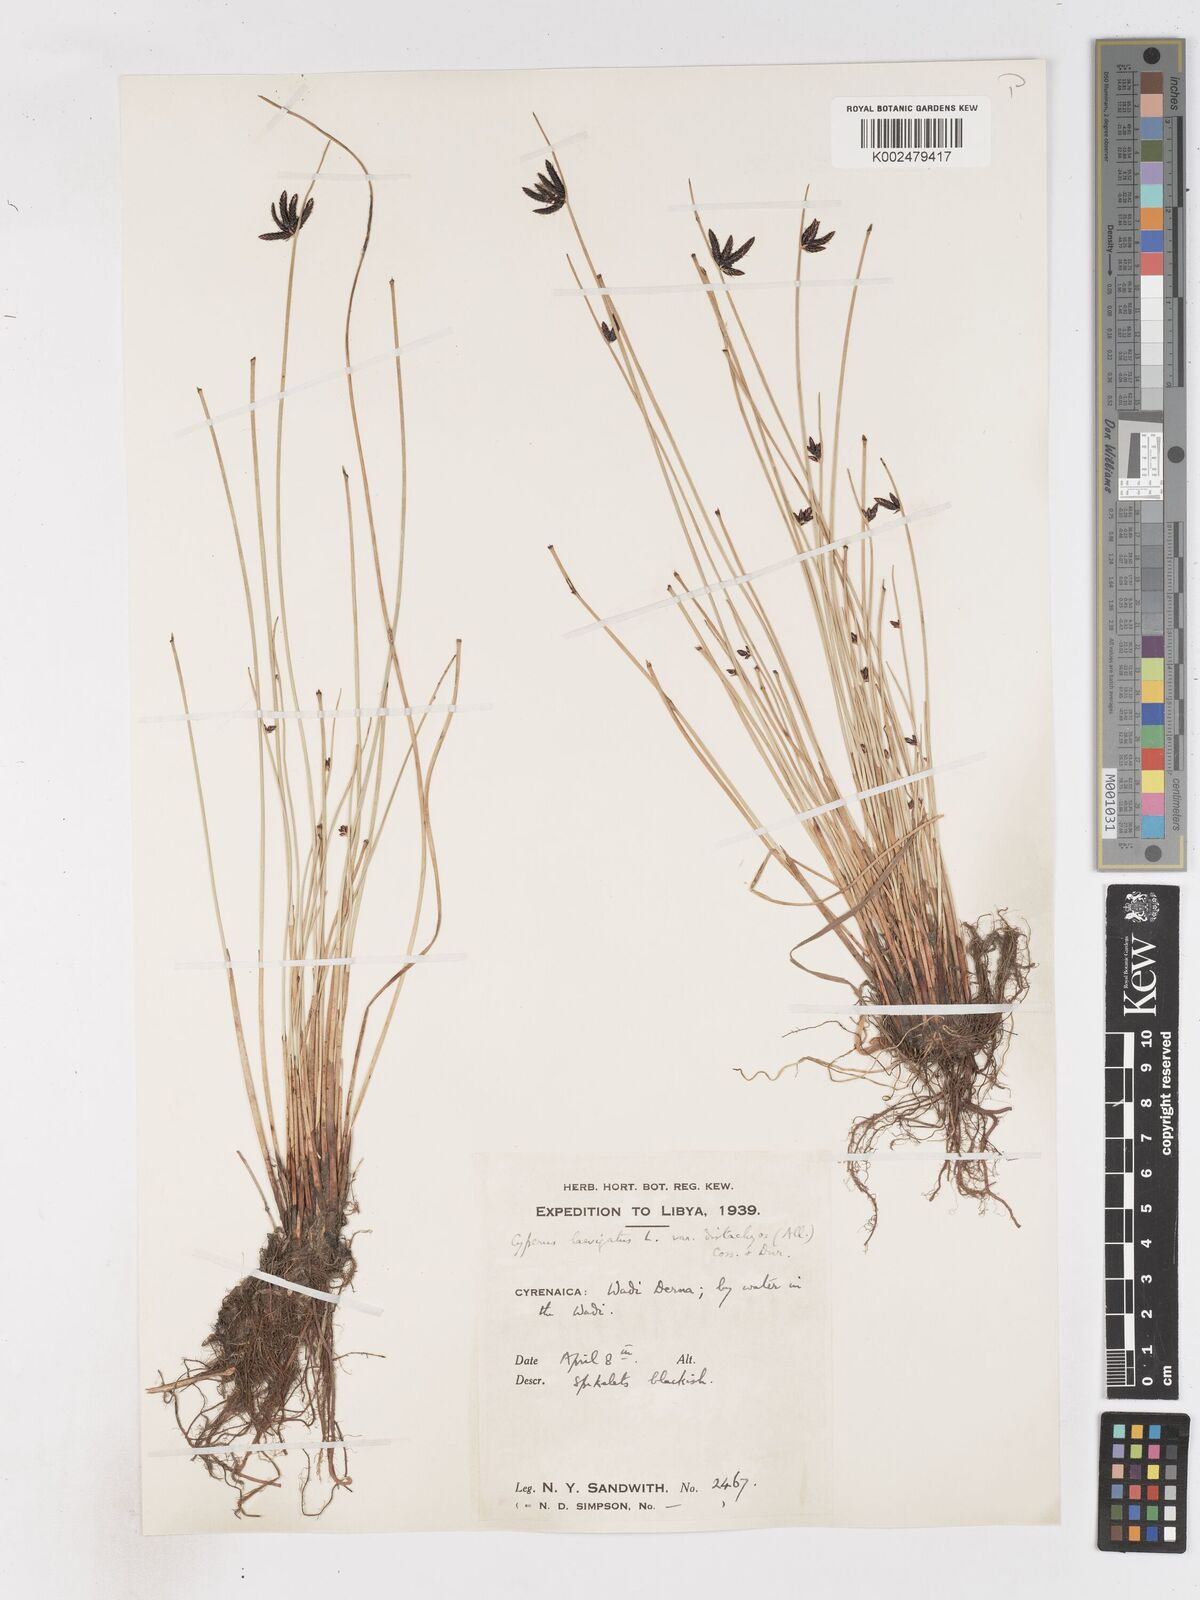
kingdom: Plantae
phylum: Tracheophyta
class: Liliopsida
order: Poales
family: Cyperaceae
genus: Cyperus
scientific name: Cyperus laevigatus
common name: Smooth flat sedge
